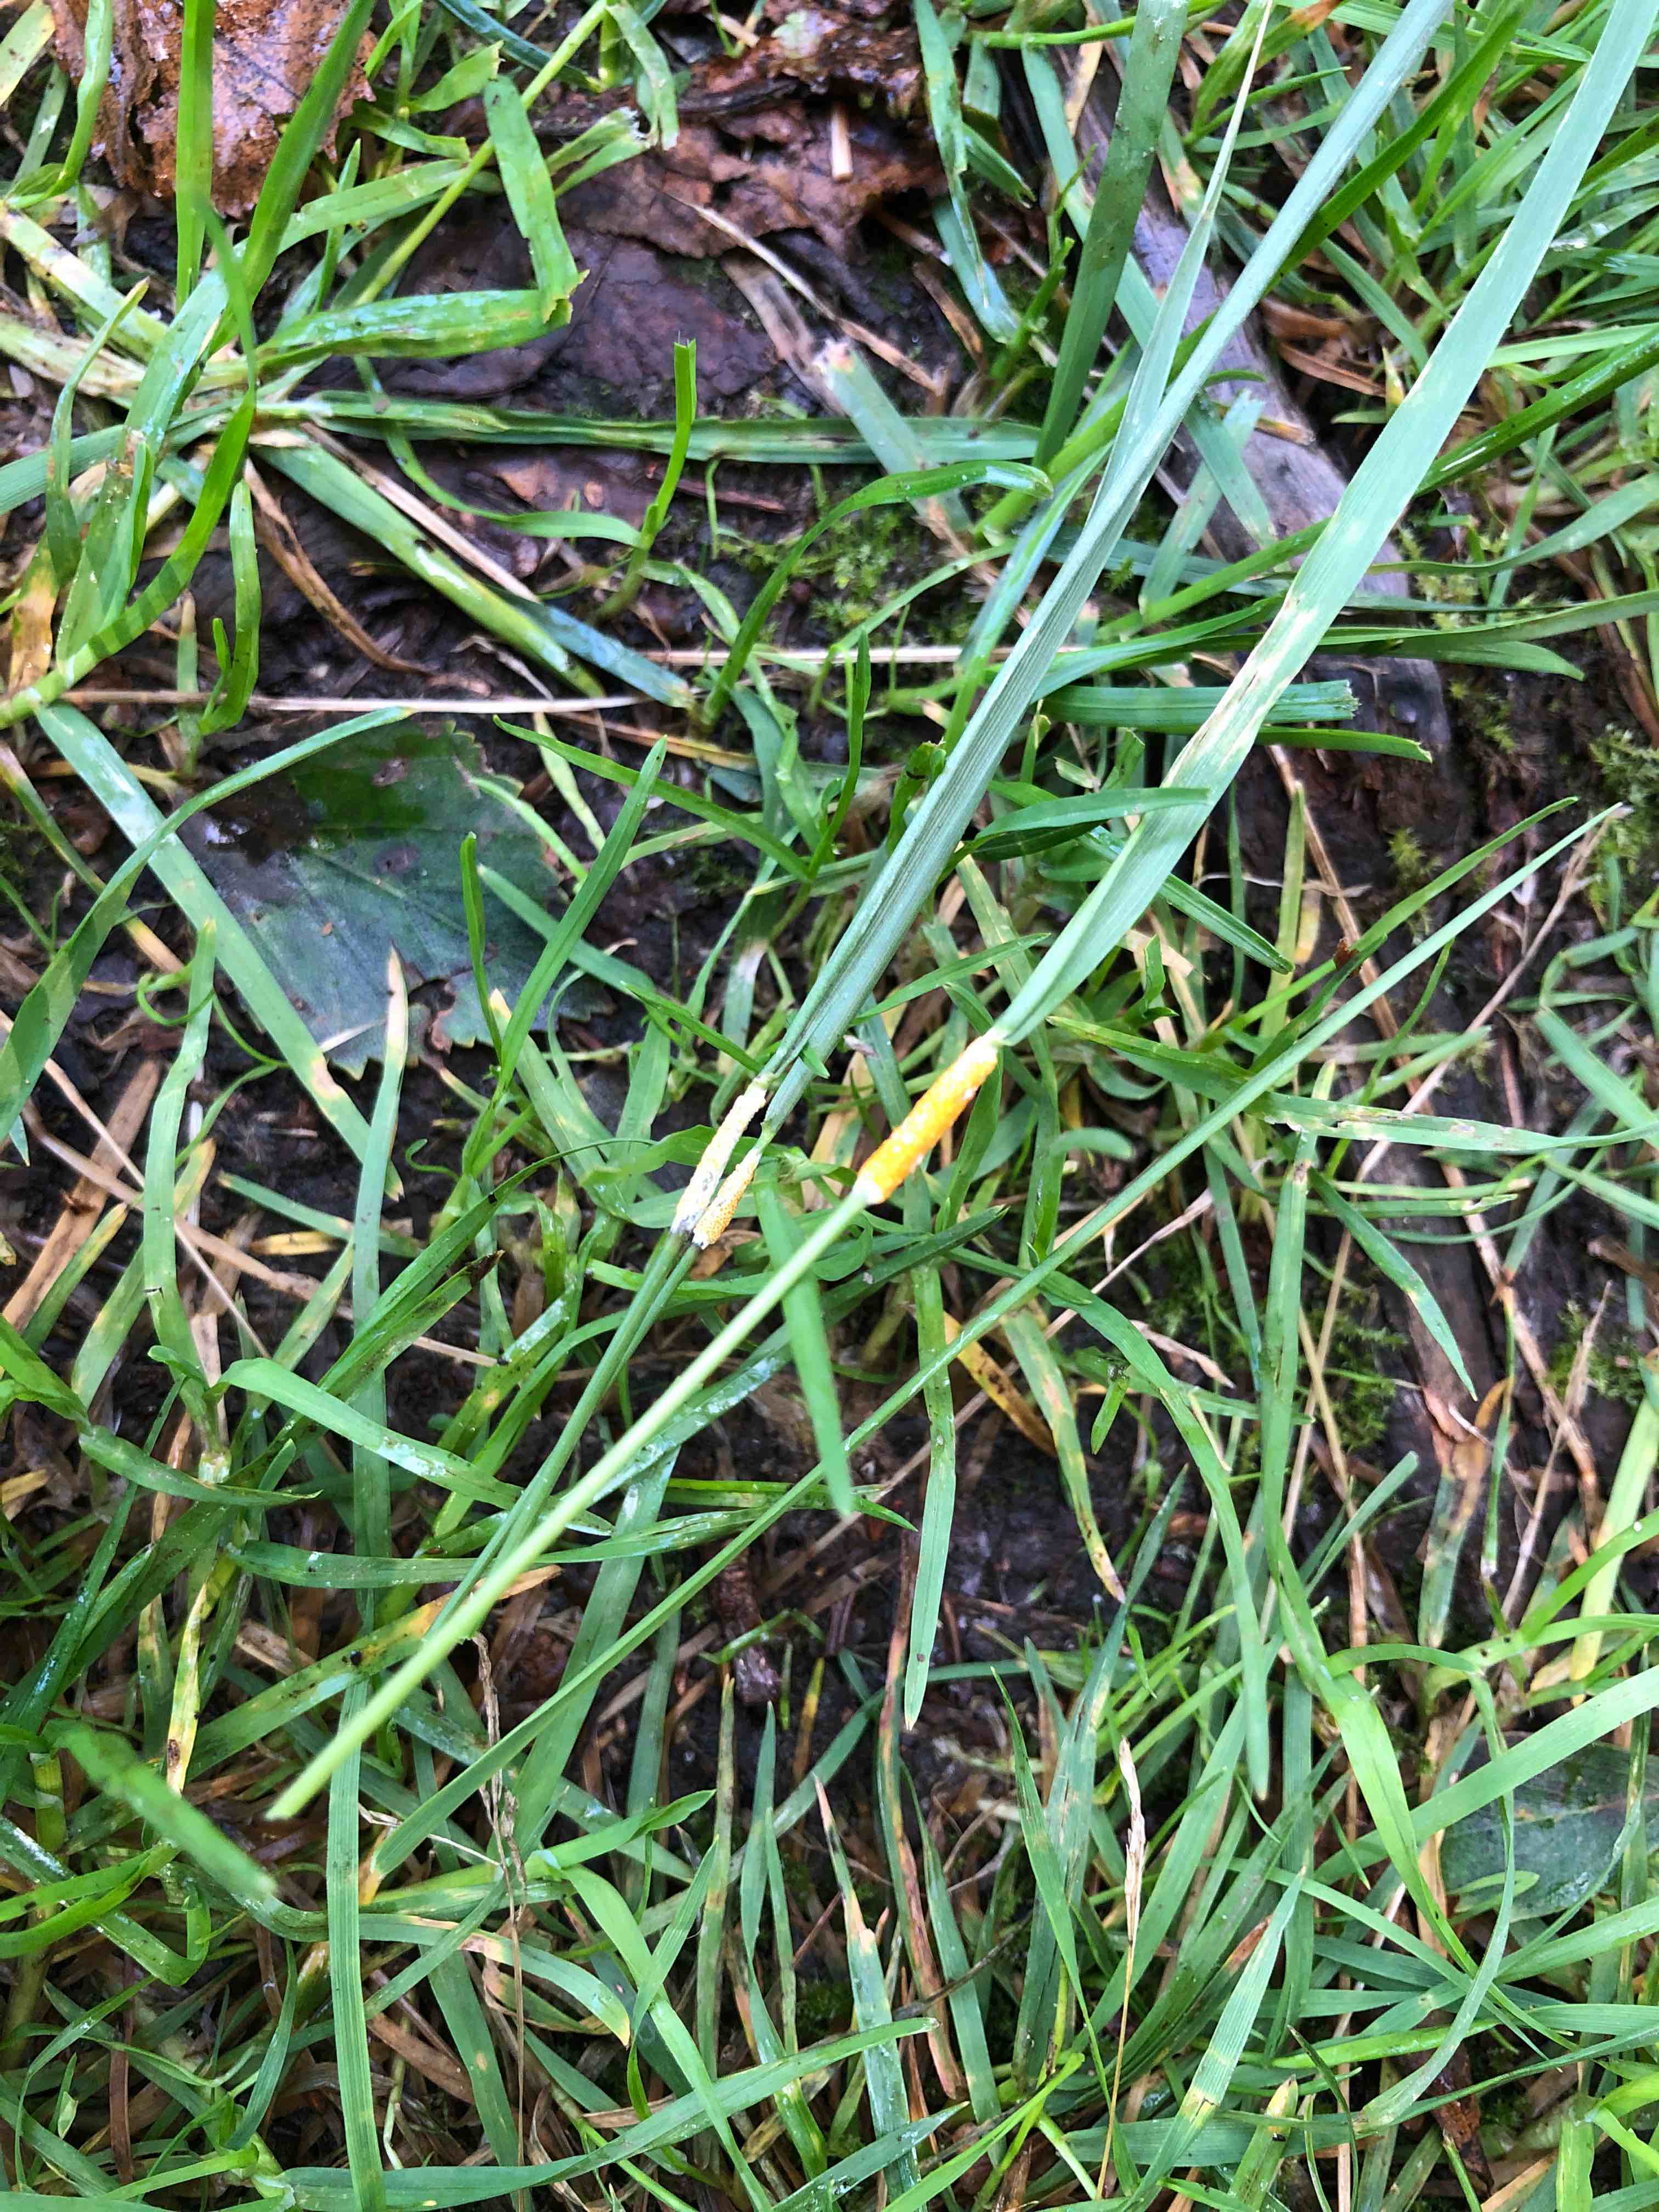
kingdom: Fungi
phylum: Ascomycota
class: Sordariomycetes
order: Hypocreales
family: Clavicipitaceae
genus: Epichloe
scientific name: Epichloe typhina
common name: almindelig kernerør
